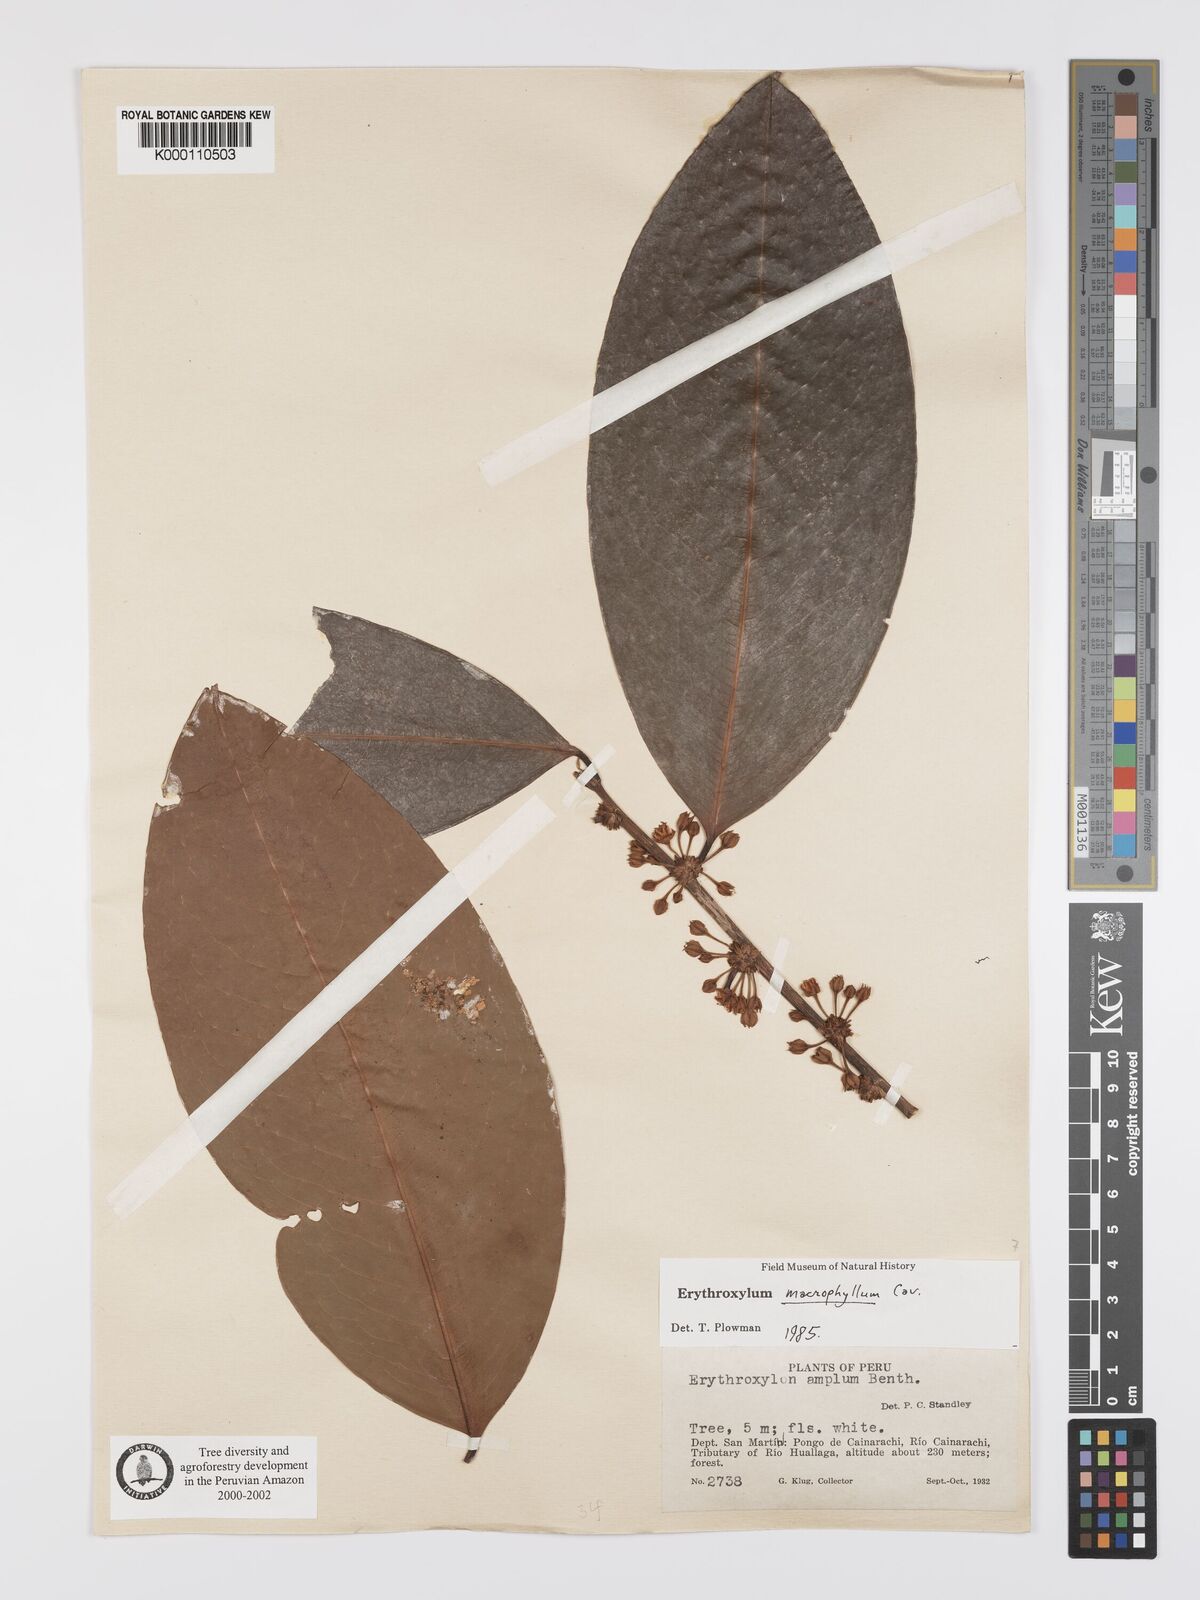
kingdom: Plantae
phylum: Tracheophyta
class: Magnoliopsida
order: Malpighiales
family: Erythroxylaceae
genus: Erythroxylum
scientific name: Erythroxylum
